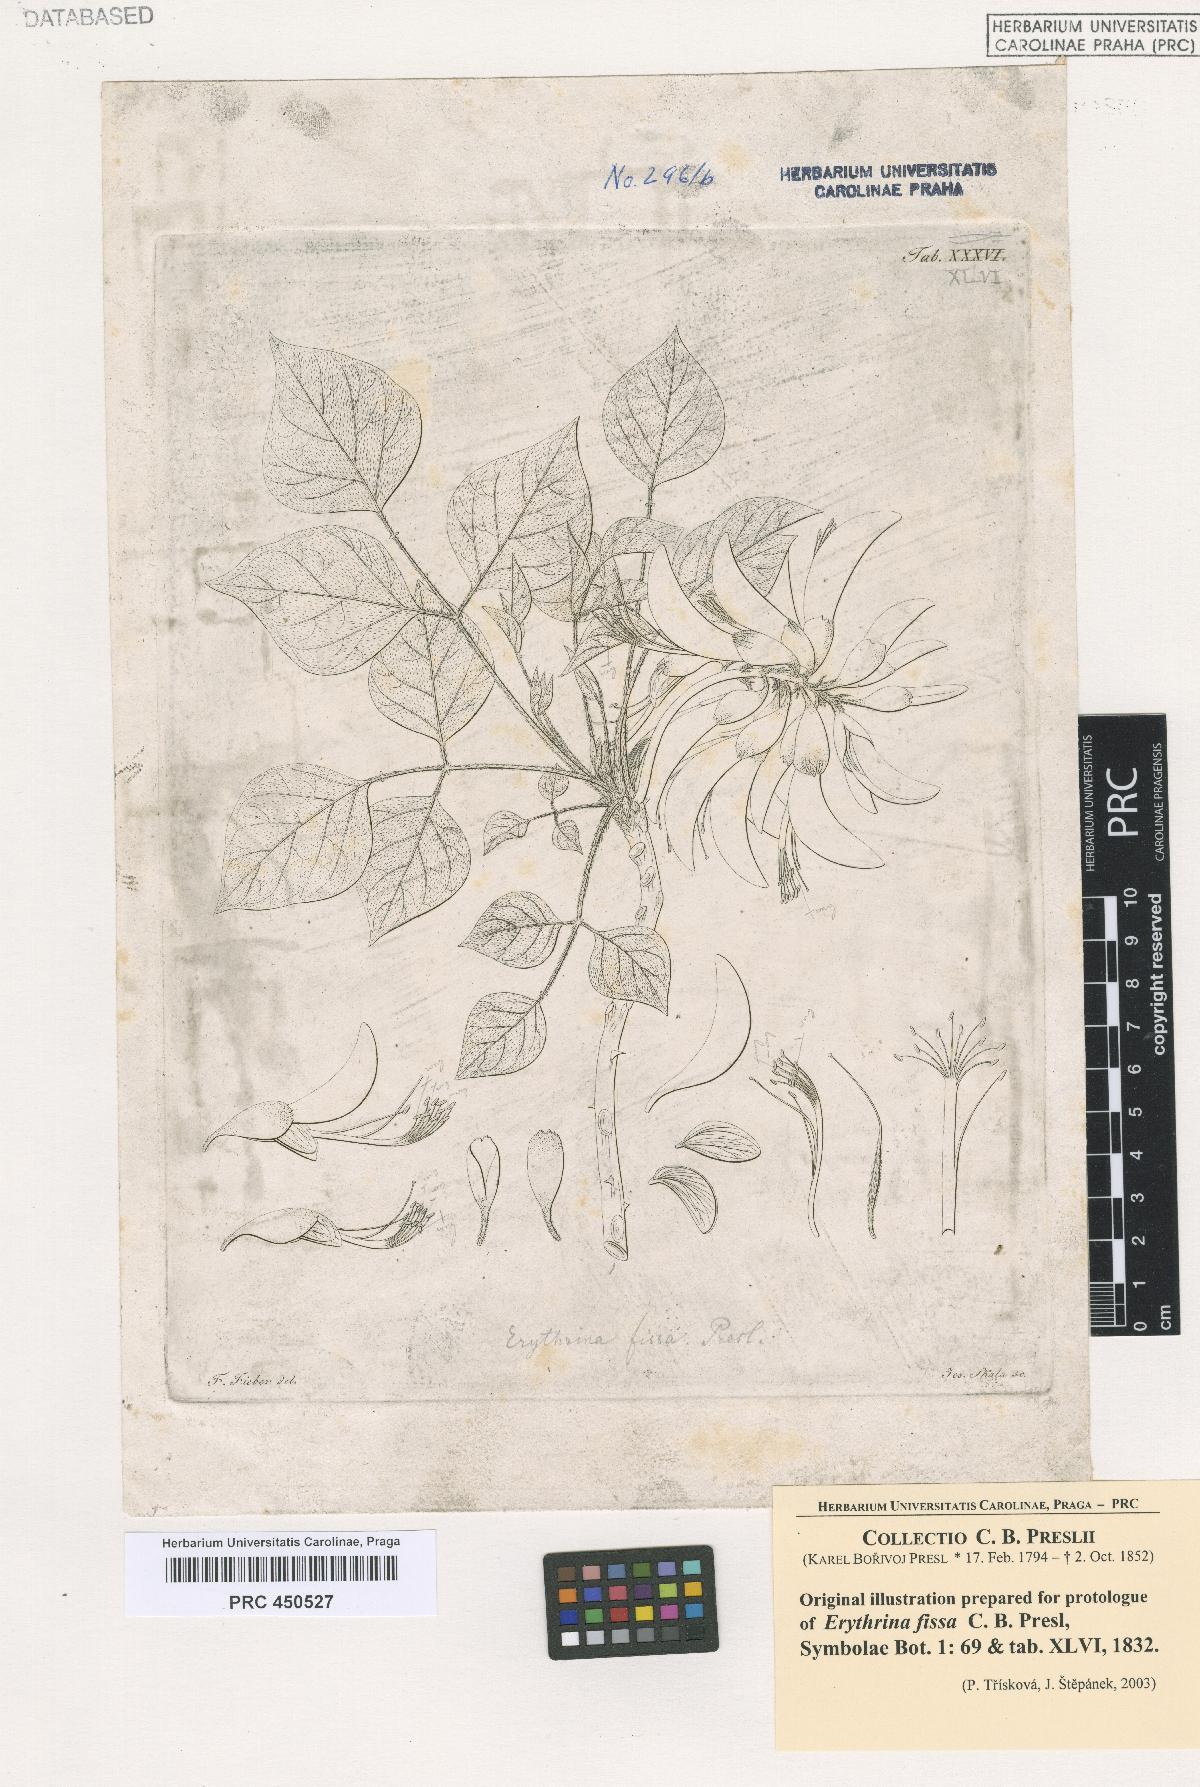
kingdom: Plantae
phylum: Tracheophyta
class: Magnoliopsida
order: Fabales
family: Fabaceae
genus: Erythrina
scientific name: Erythrina caffra
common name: Coast coral tree
